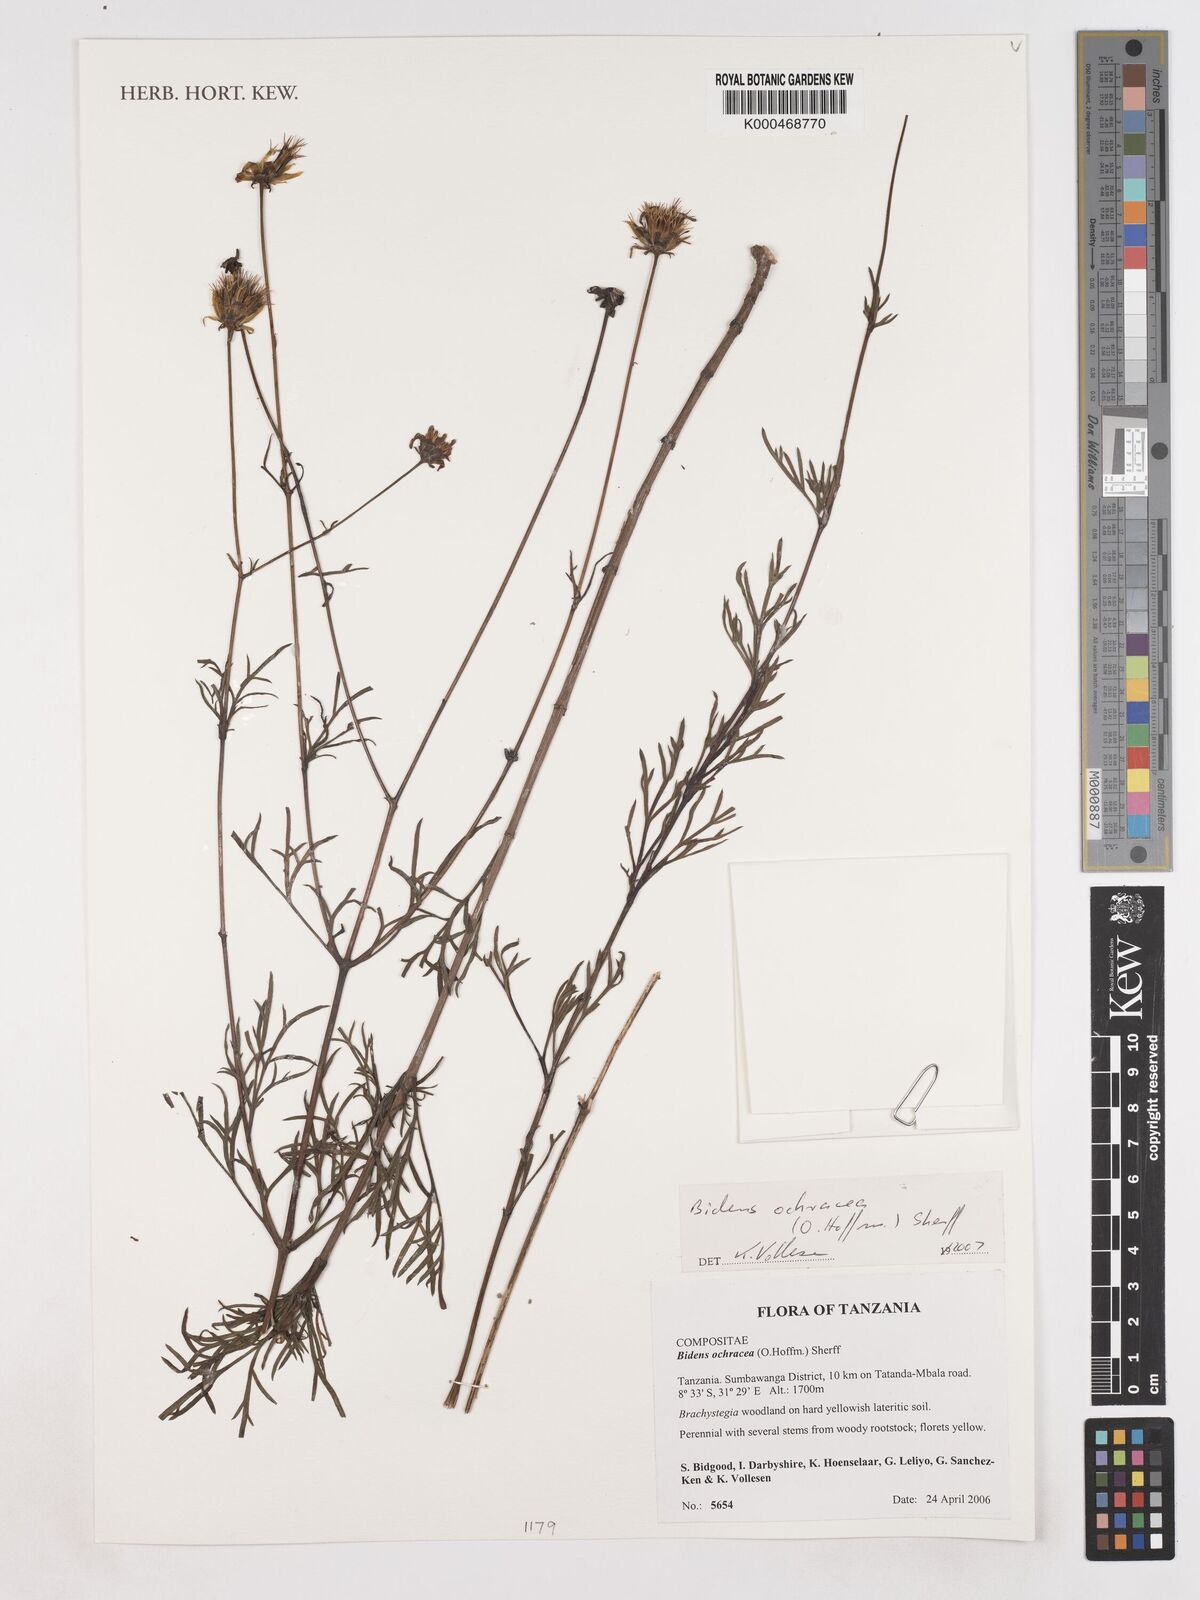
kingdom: Plantae
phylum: Tracheophyta
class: Magnoliopsida
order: Asterales
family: Asteraceae
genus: Bidens
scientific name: Bidens ochracea
